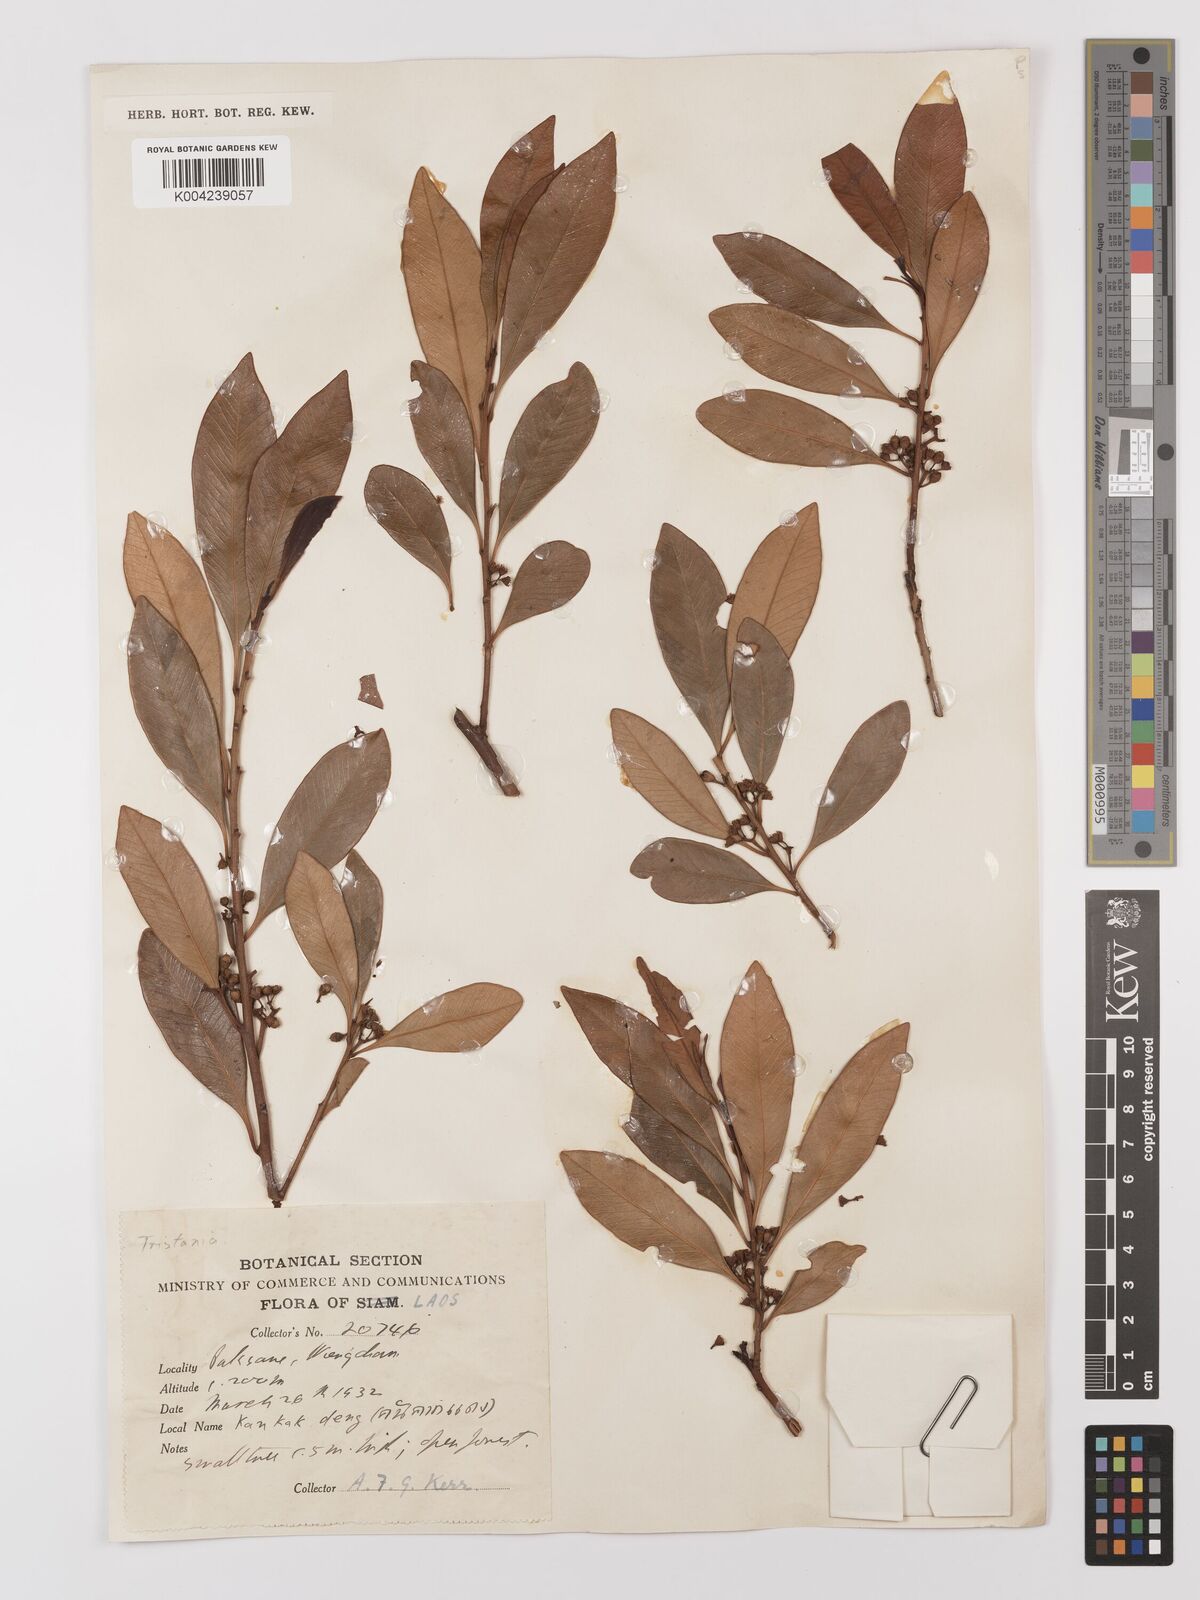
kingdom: Plantae
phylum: Tracheophyta
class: Magnoliopsida
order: Myrtales
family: Myrtaceae
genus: Tristaniopsis
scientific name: Tristaniopsis
